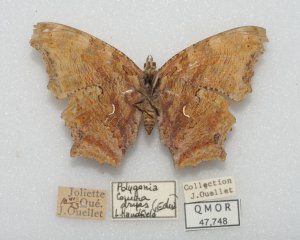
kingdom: Animalia
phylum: Arthropoda
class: Insecta
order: Lepidoptera
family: Nymphalidae
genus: Polygonia
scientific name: Polygonia comma
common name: Eastern Comma
